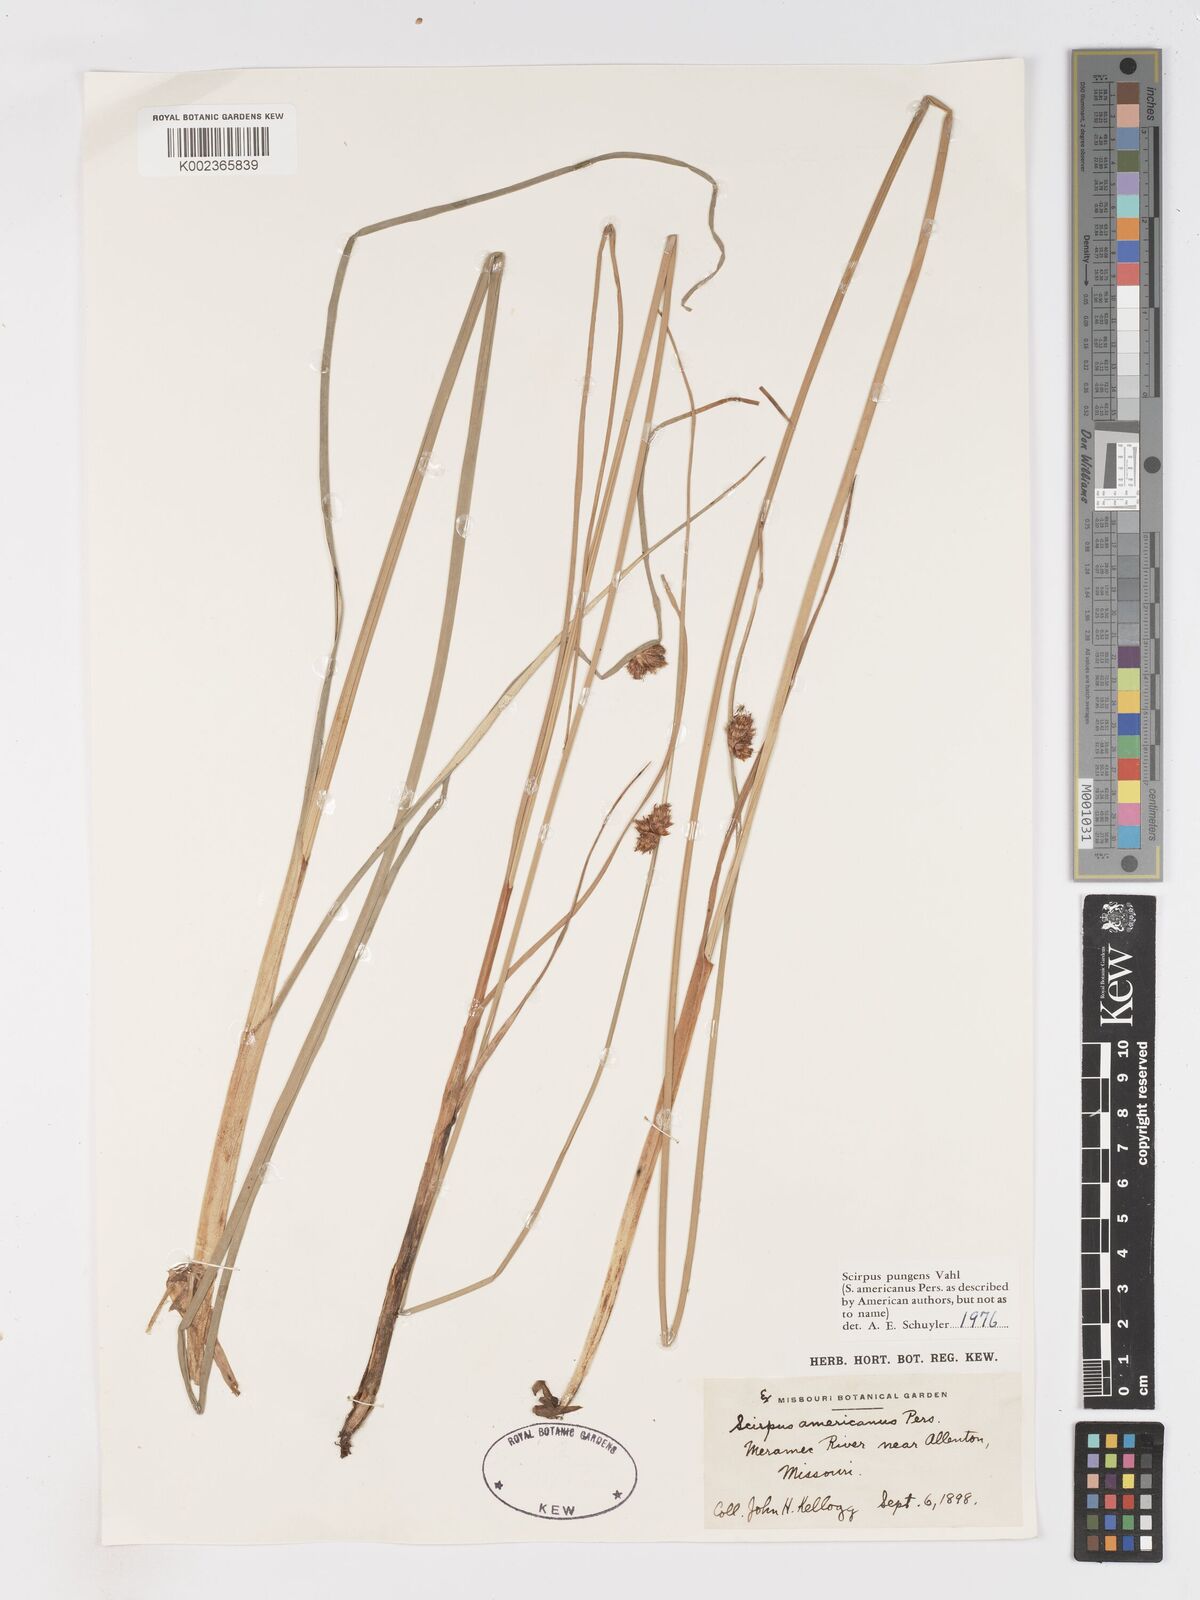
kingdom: Plantae
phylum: Tracheophyta
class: Liliopsida
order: Poales
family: Cyperaceae
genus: Schoenoplectus
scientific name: Schoenoplectus pungens
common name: Sharp club-rush
